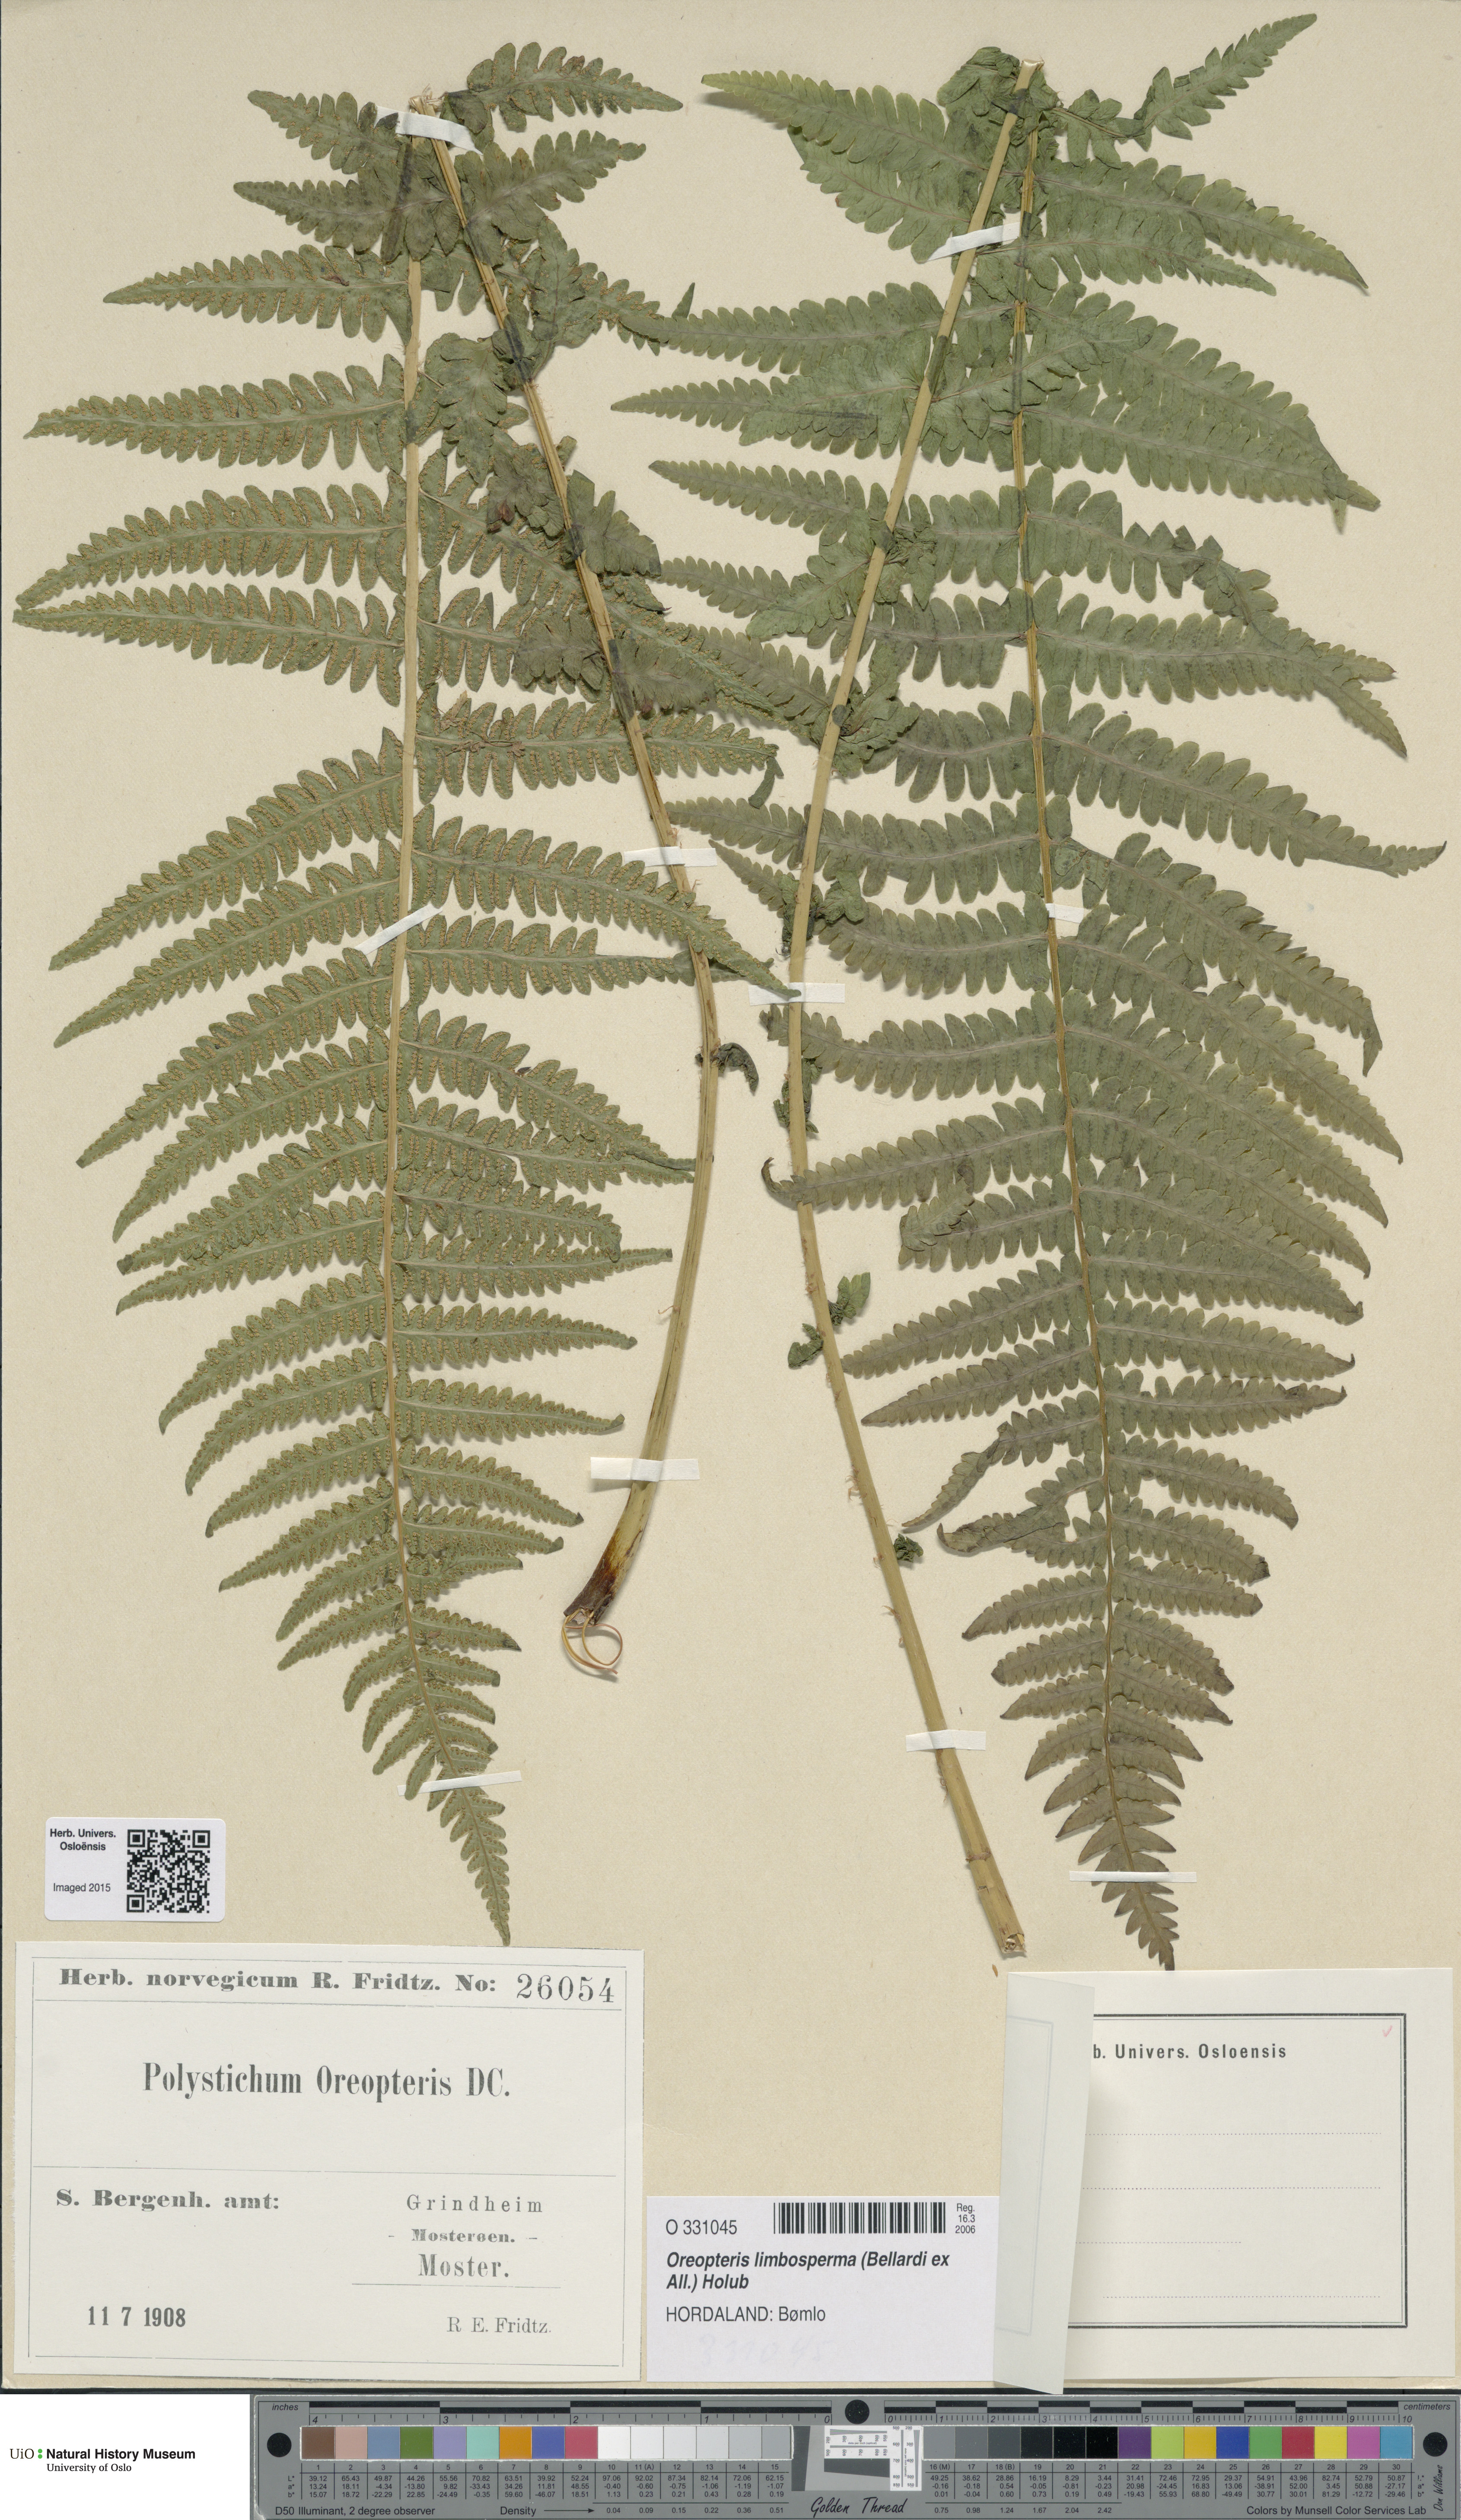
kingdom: Plantae
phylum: Tracheophyta
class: Polypodiopsida
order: Polypodiales
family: Thelypteridaceae
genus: Oreopteris
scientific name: Oreopteris limbosperma
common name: Lemon-scented fern
